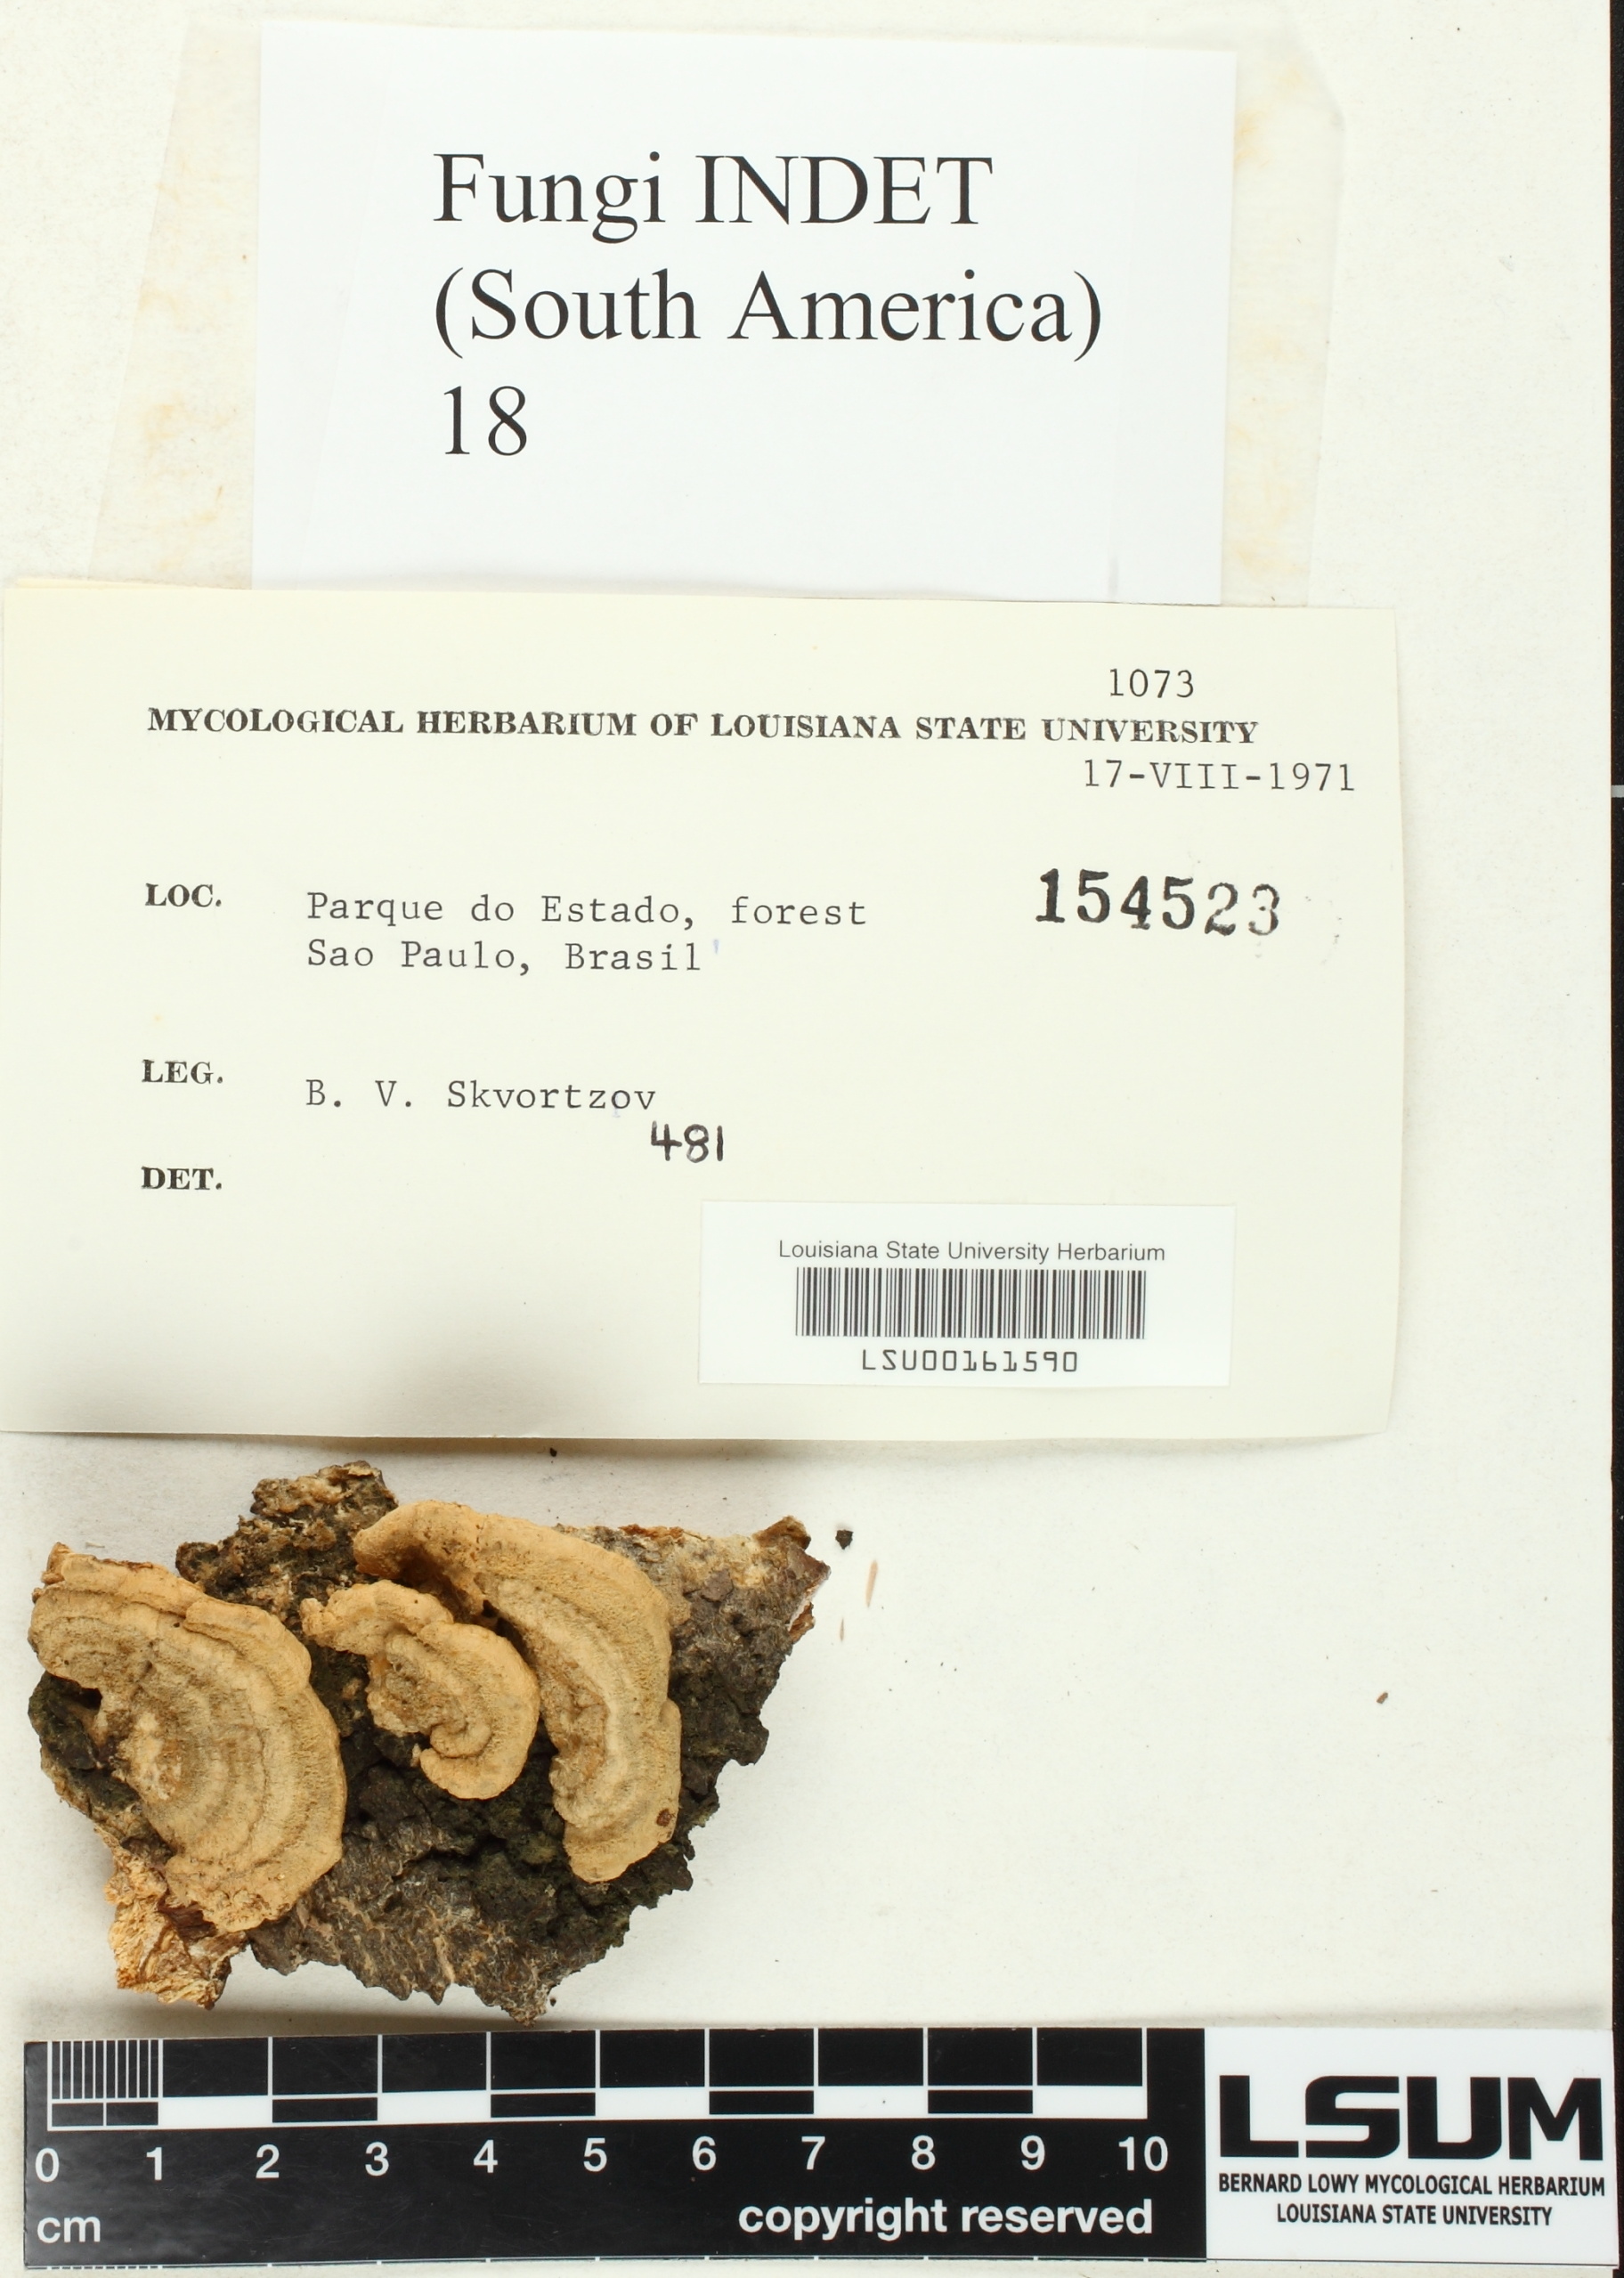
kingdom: Fungi
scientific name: Fungi
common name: Fungi
